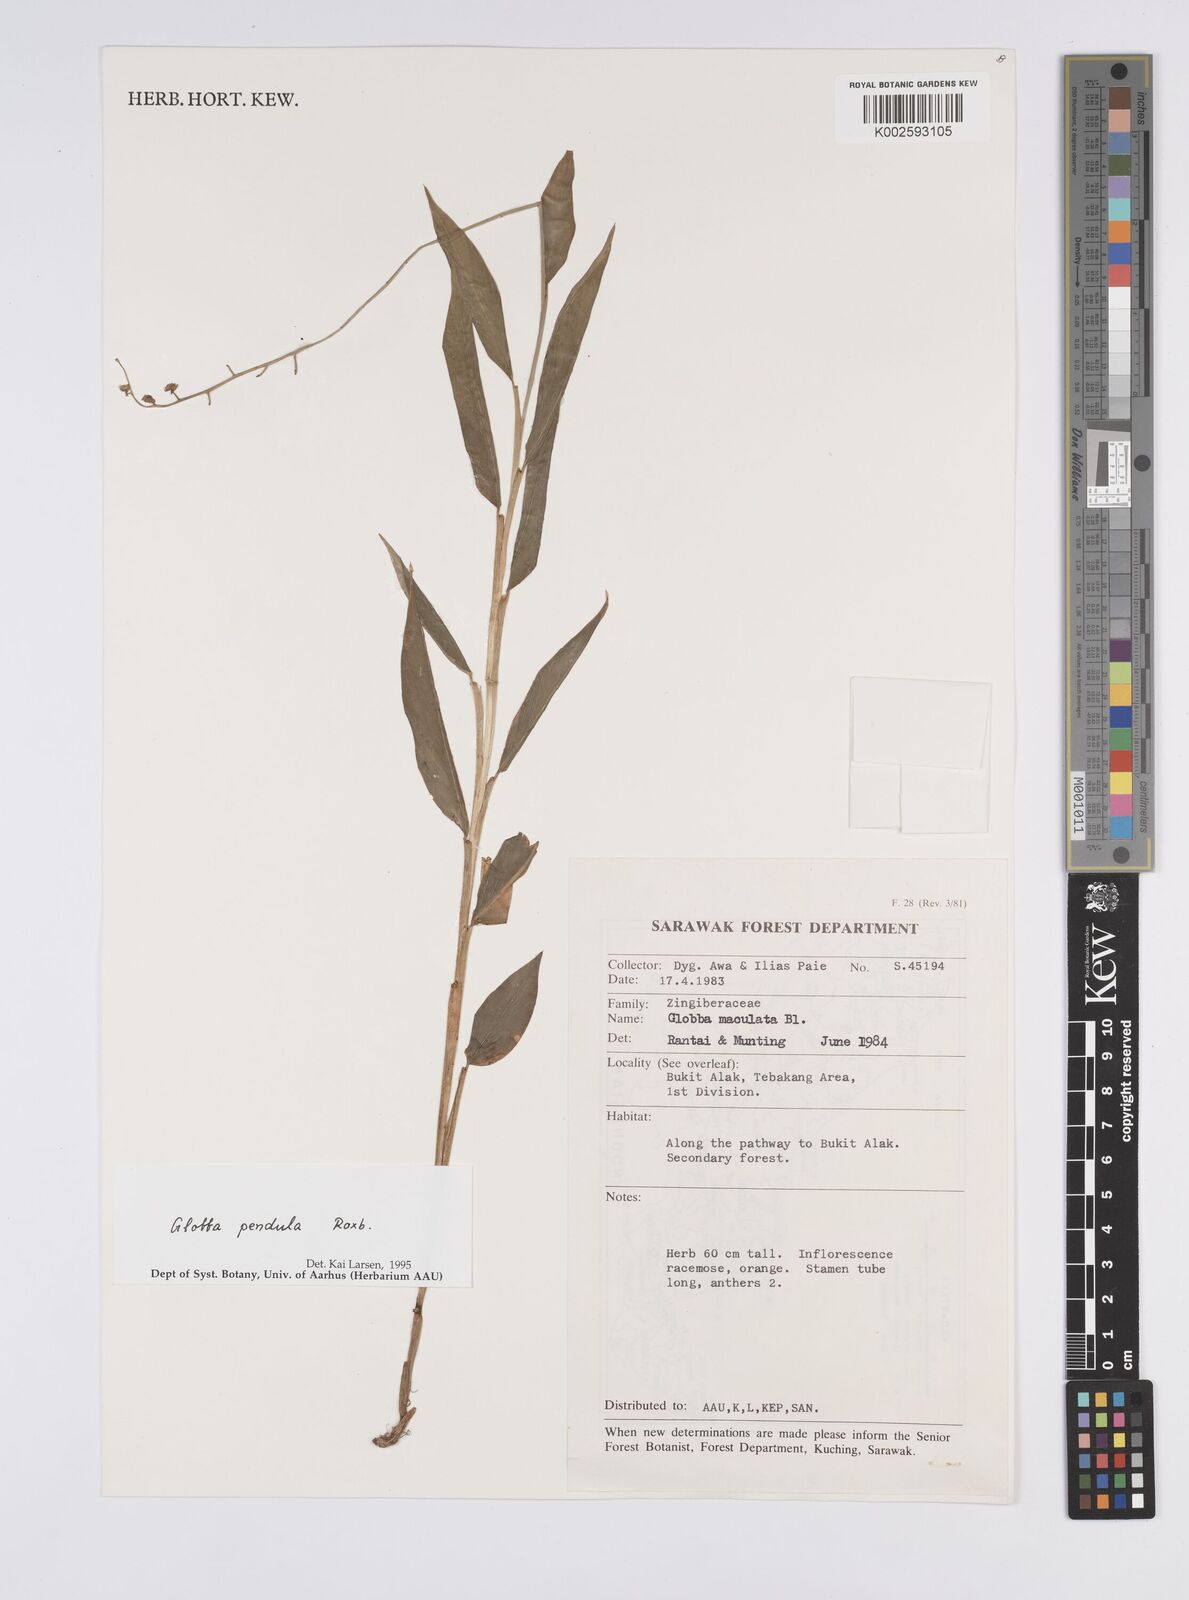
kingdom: Plantae
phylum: Tracheophyta
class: Liliopsida
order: Zingiberales
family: Zingiberaceae
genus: Globba
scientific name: Globba pendula
